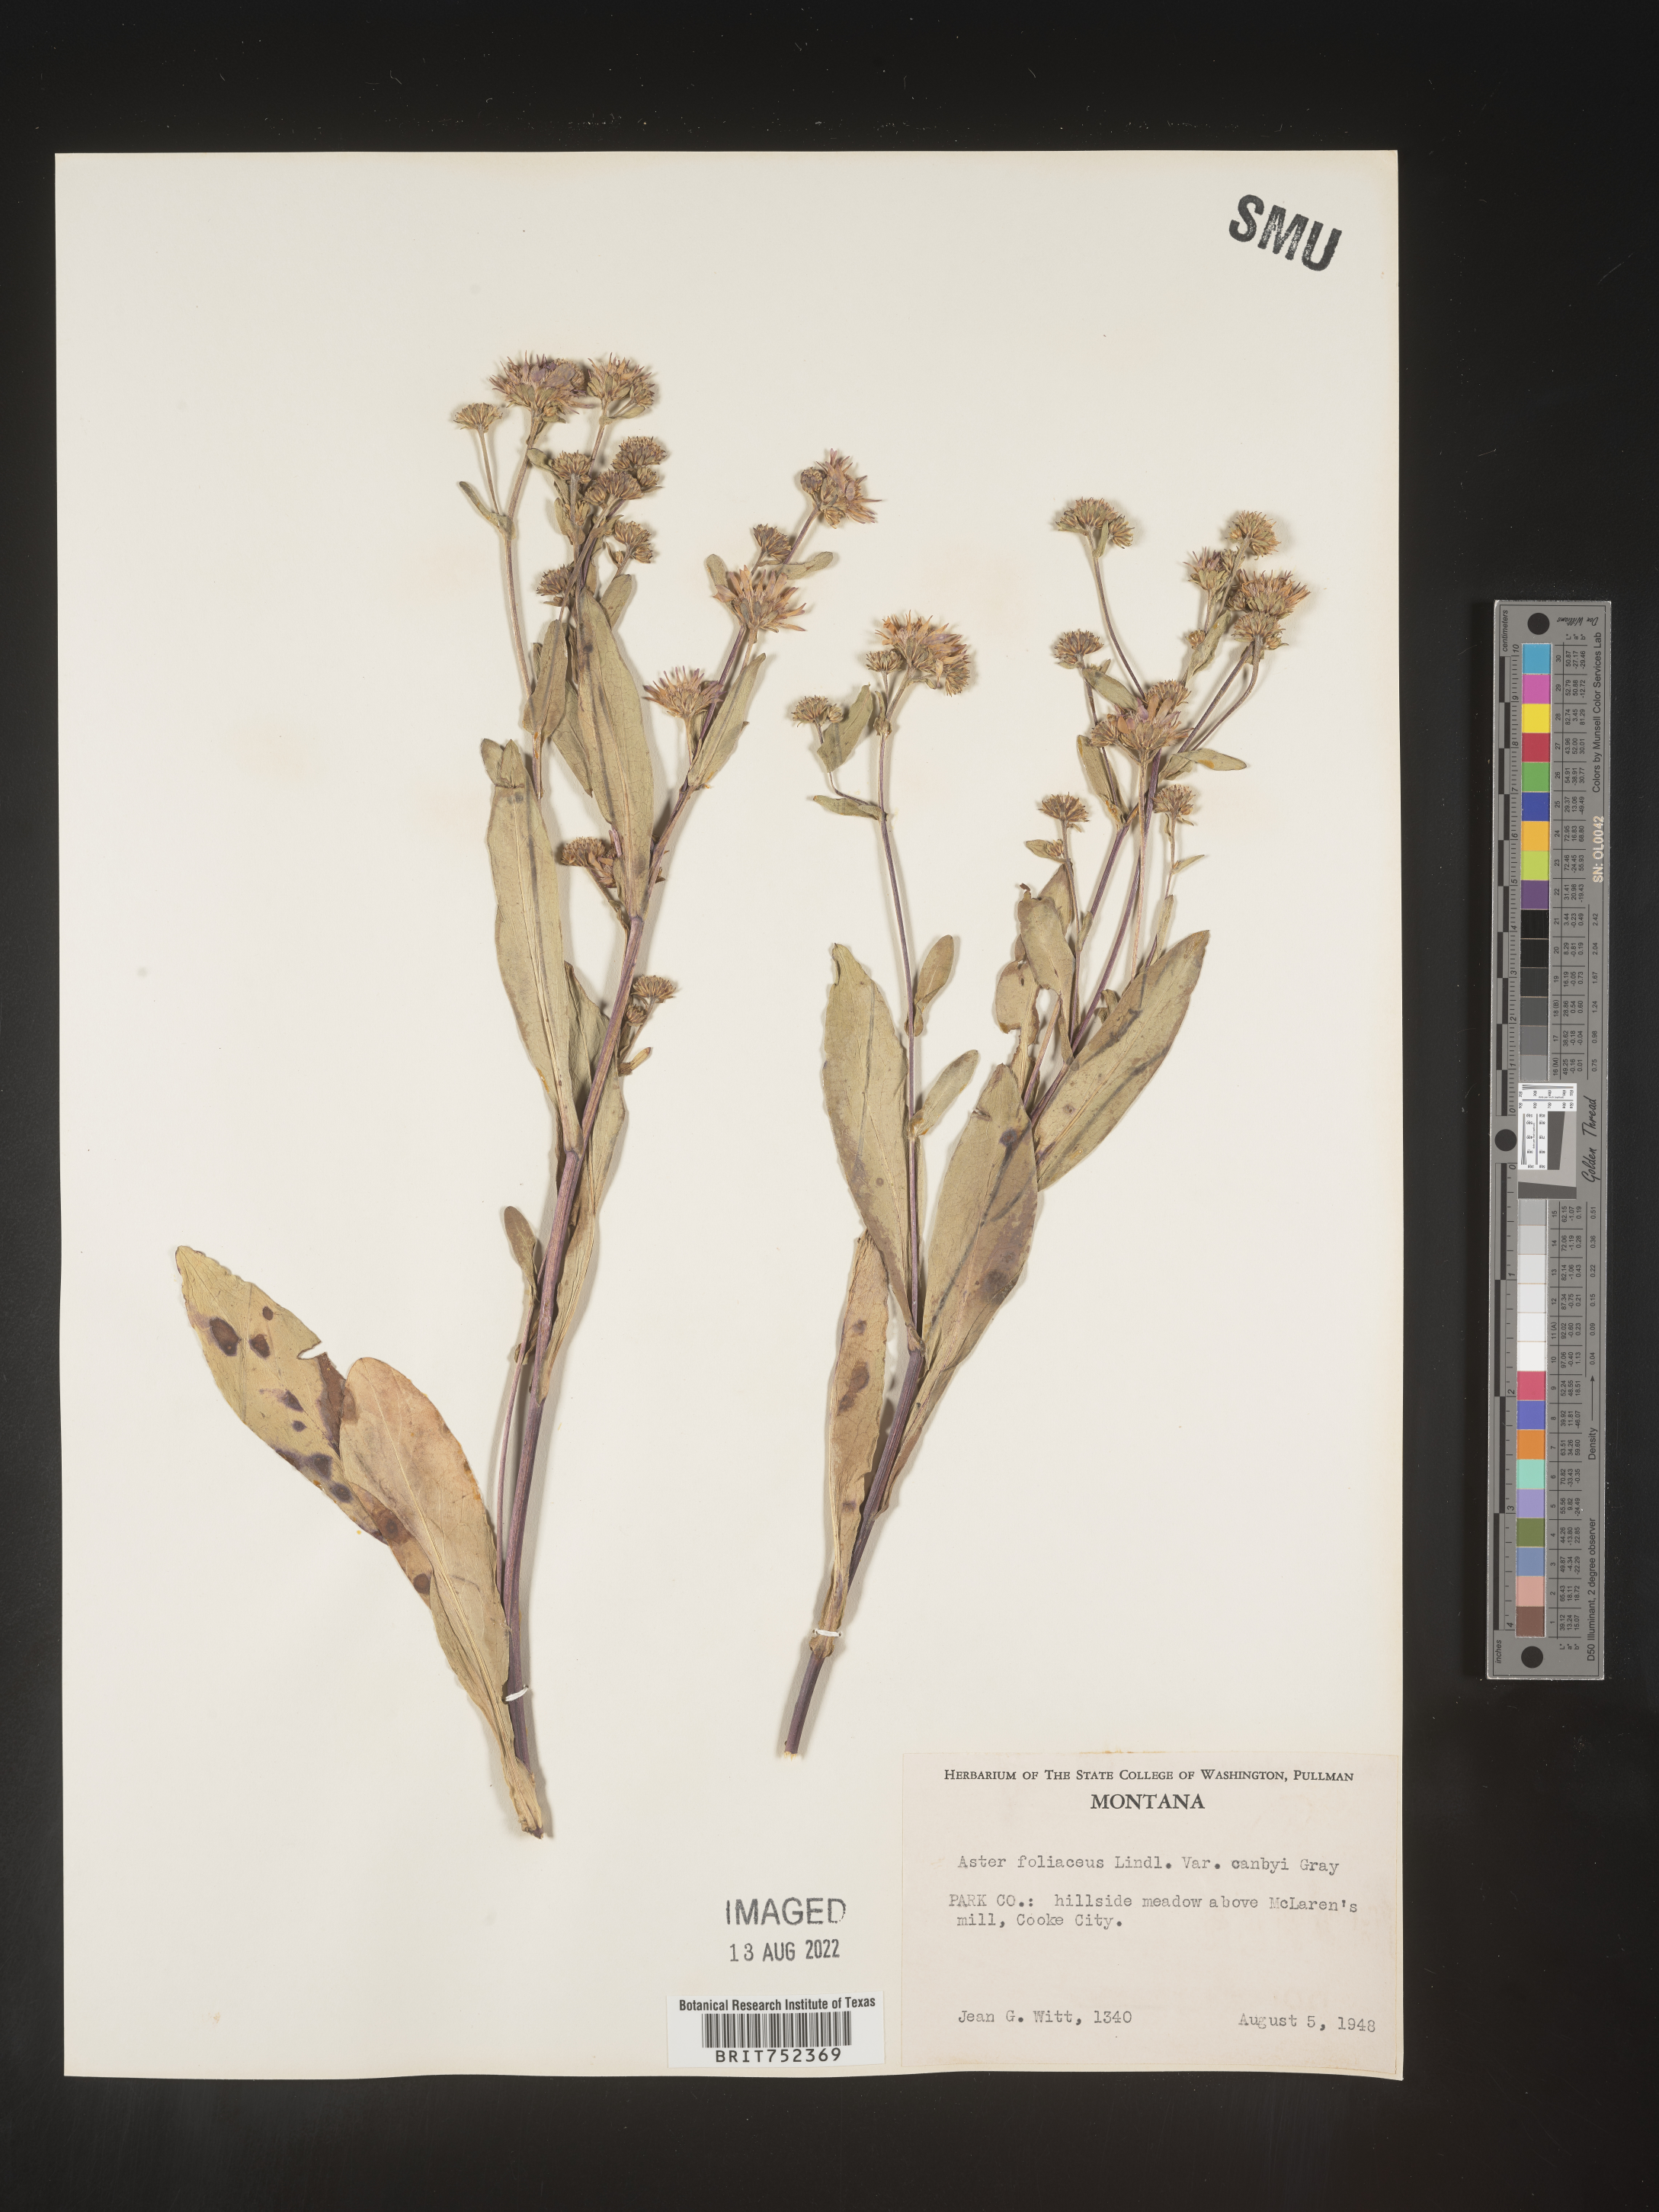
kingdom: Plantae
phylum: Tracheophyta
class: Magnoliopsida
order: Asterales
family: Asteraceae
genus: Symphyotrichum
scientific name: Symphyotrichum foliaceum
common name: Leafy aster
